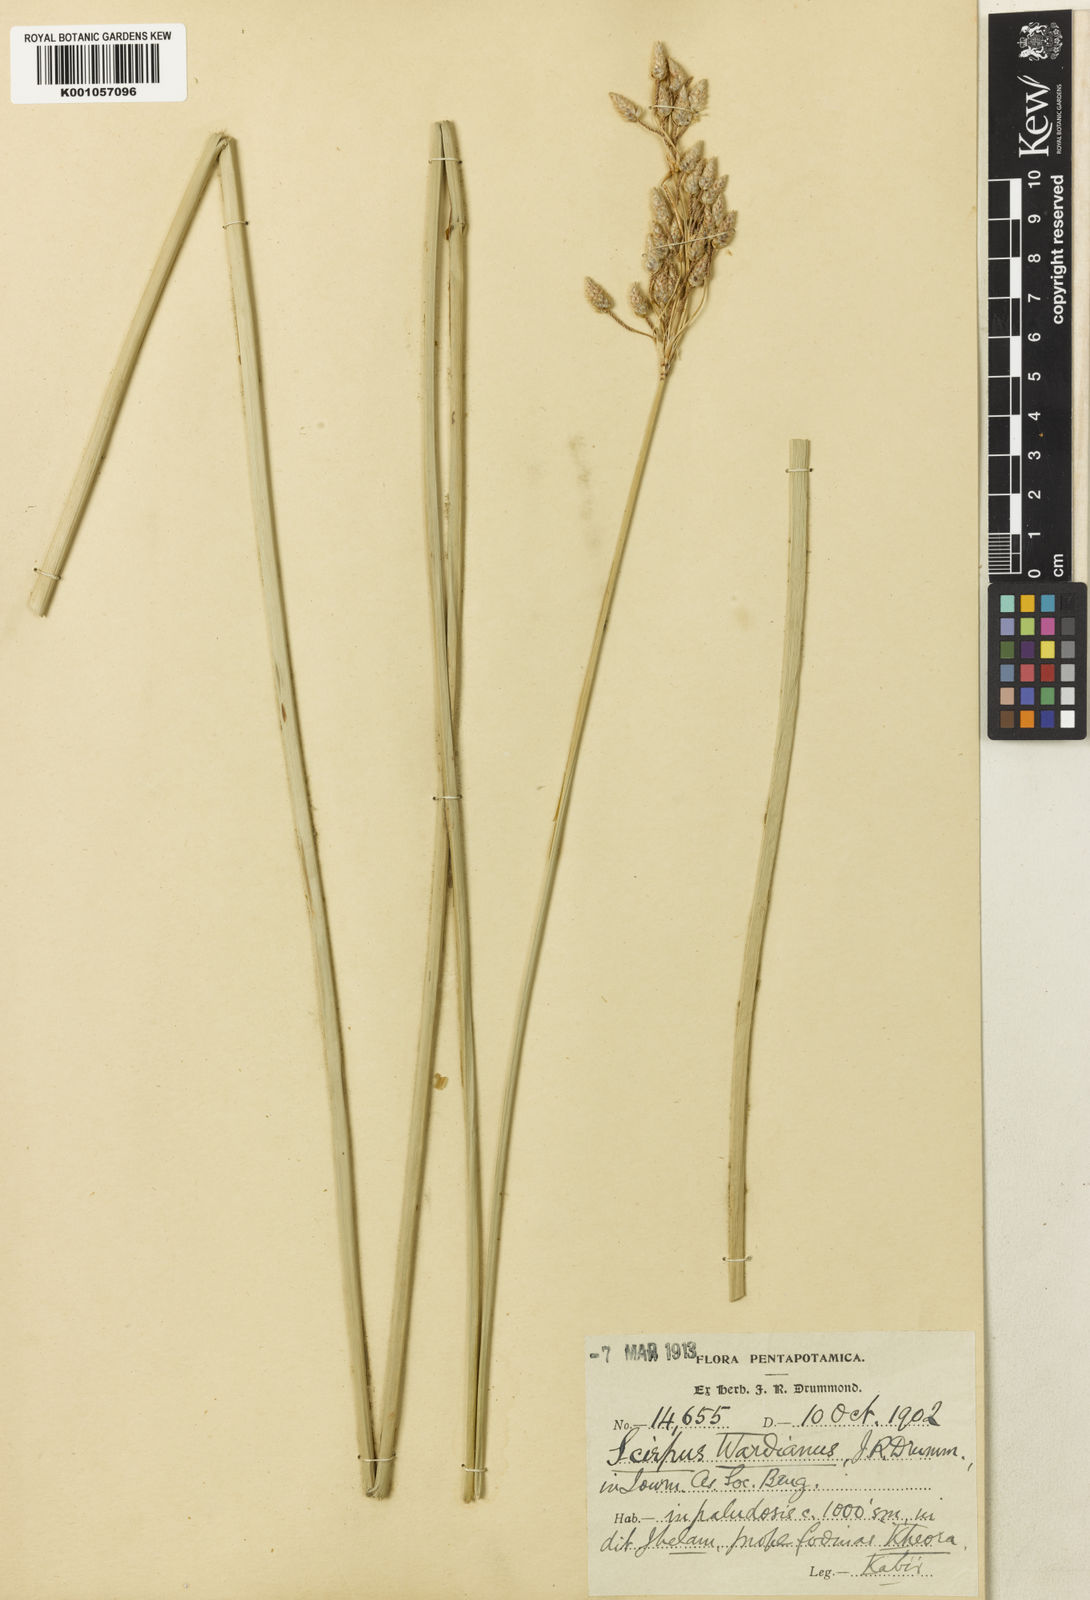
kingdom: Plantae
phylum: Tracheophyta
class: Liliopsida
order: Poales
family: Cyperaceae
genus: Schoenoplectus
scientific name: Schoenoplectus litoralis
